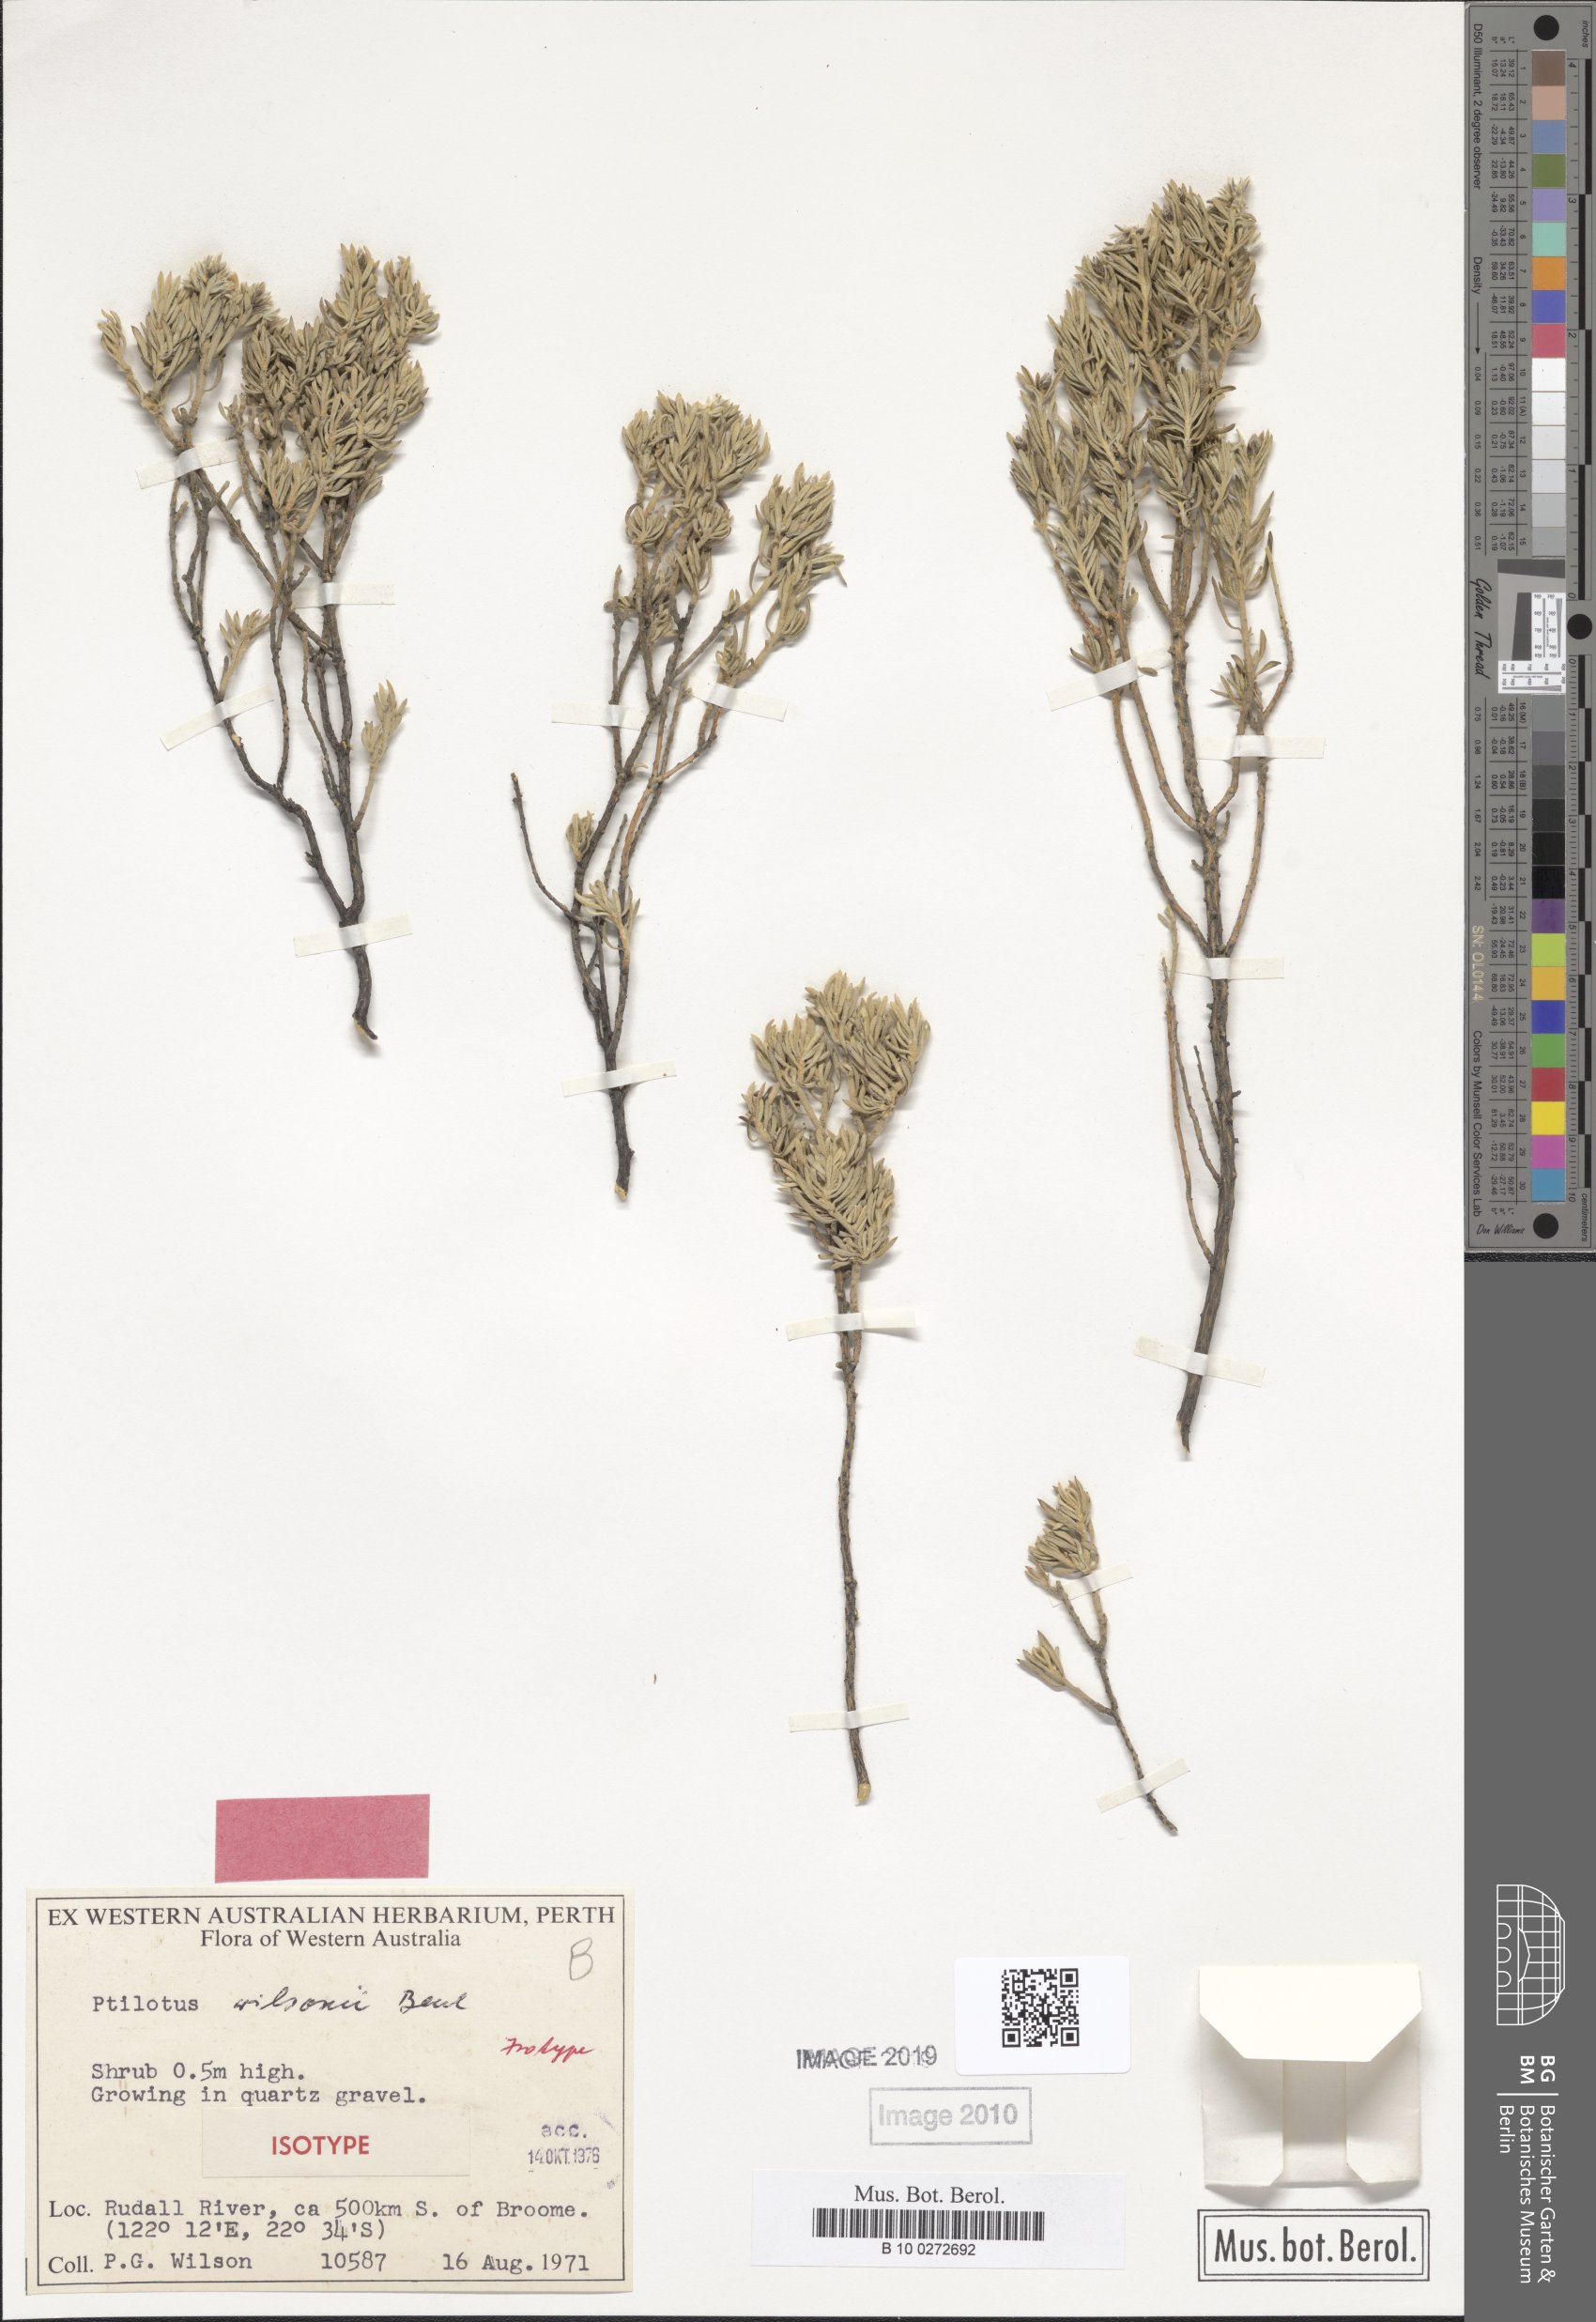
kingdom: Plantae
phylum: Tracheophyta
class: Magnoliopsida
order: Caryophyllales
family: Amaranthaceae
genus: Ptilotus
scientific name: Ptilotus wilsonii
